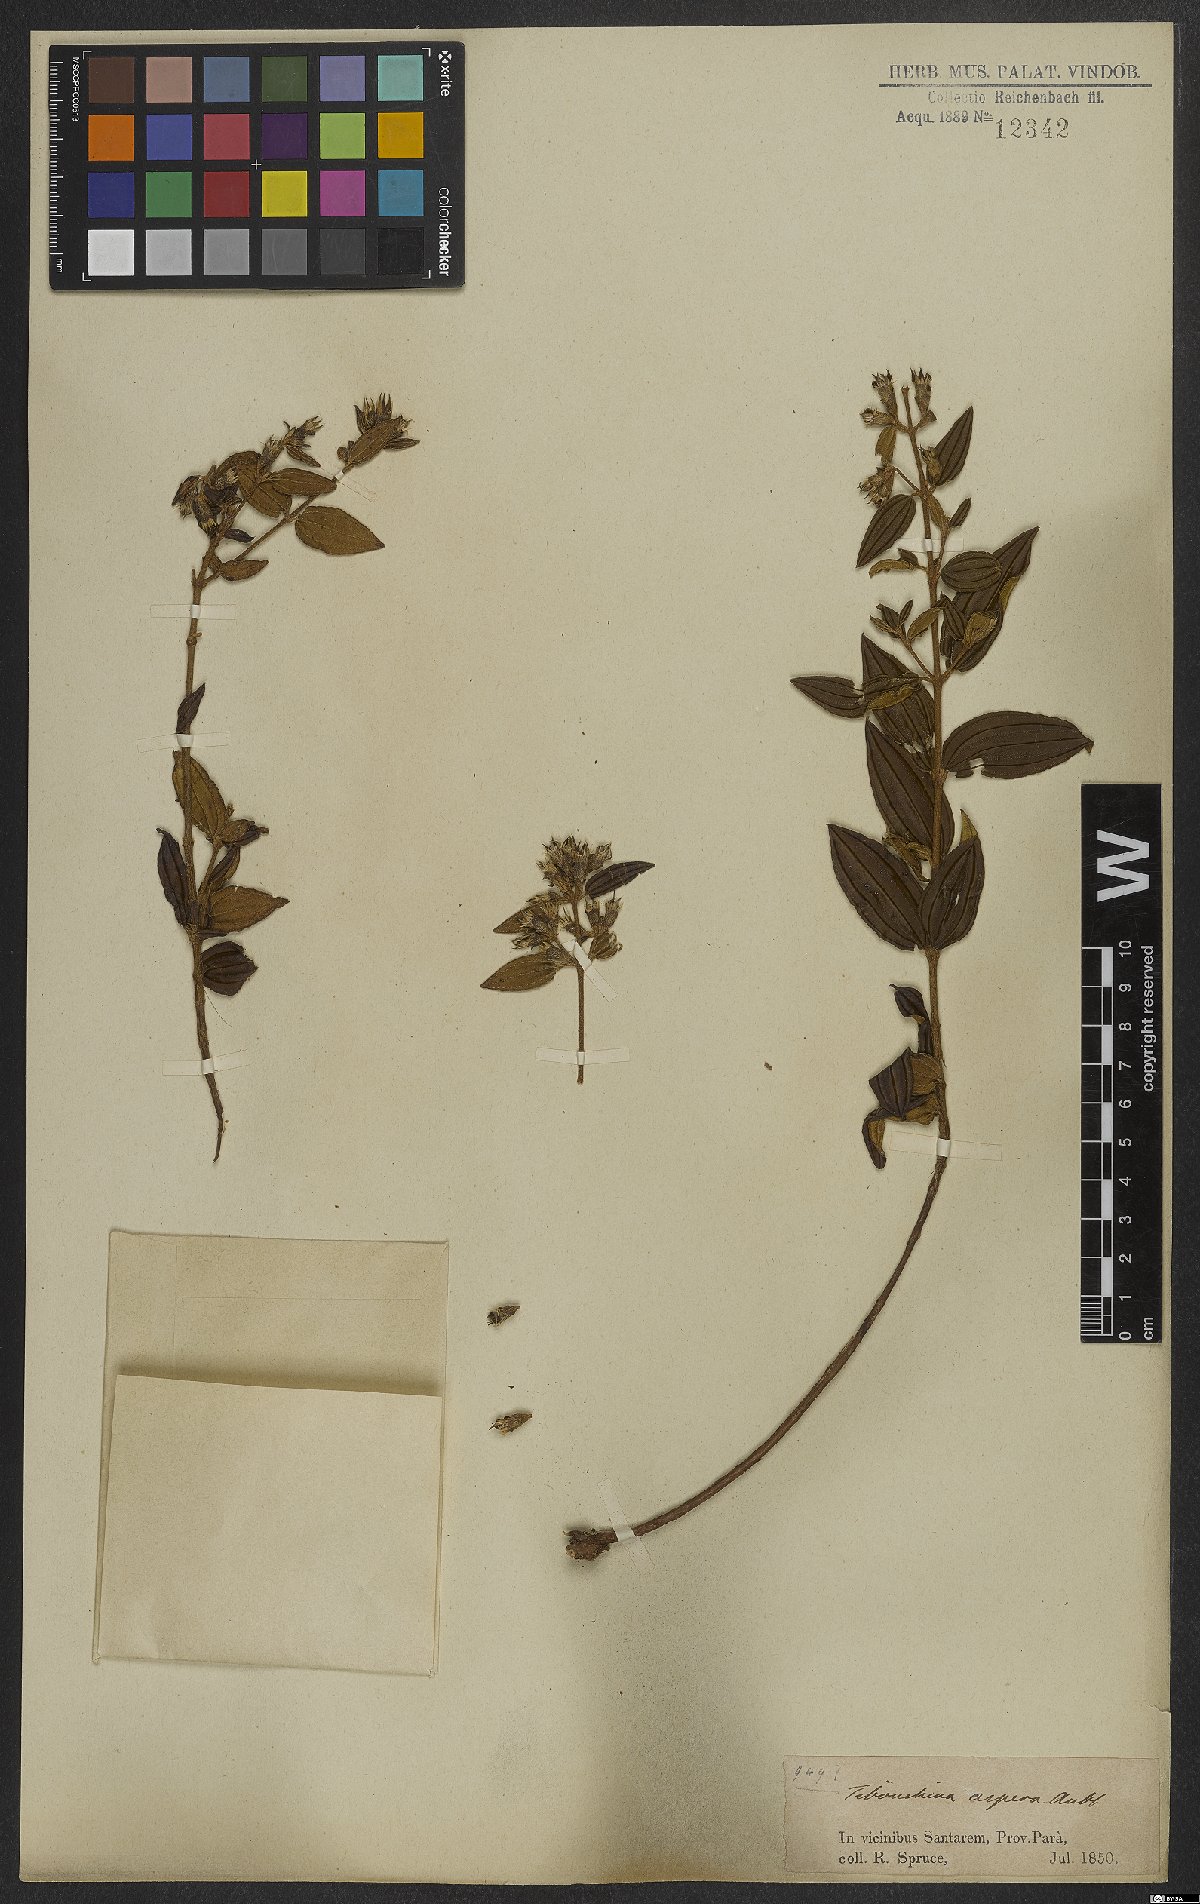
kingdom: Plantae
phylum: Tracheophyta
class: Magnoliopsida
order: Myrtales
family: Melastomataceae
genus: Tibouchina
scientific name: Tibouchina aspera
